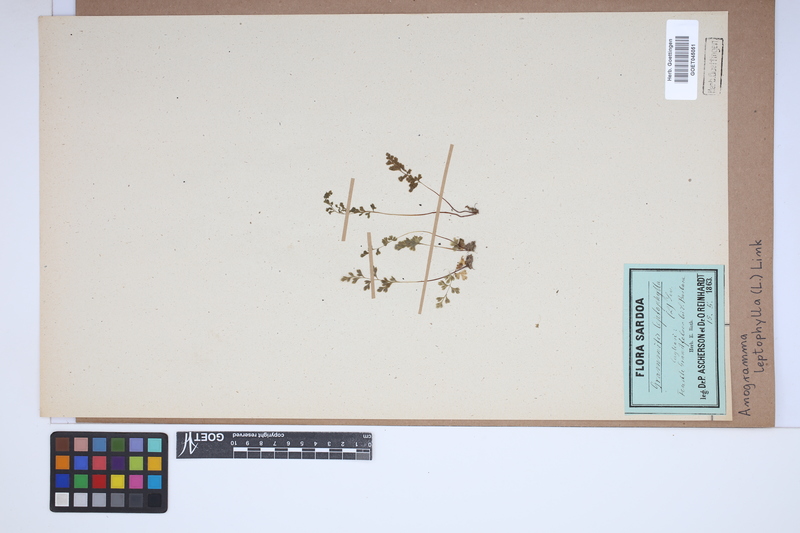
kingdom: Plantae
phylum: Tracheophyta
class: Polypodiopsida
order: Polypodiales
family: Pteridaceae
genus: Anogramma
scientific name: Anogramma leptophylla
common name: Jersey fern
